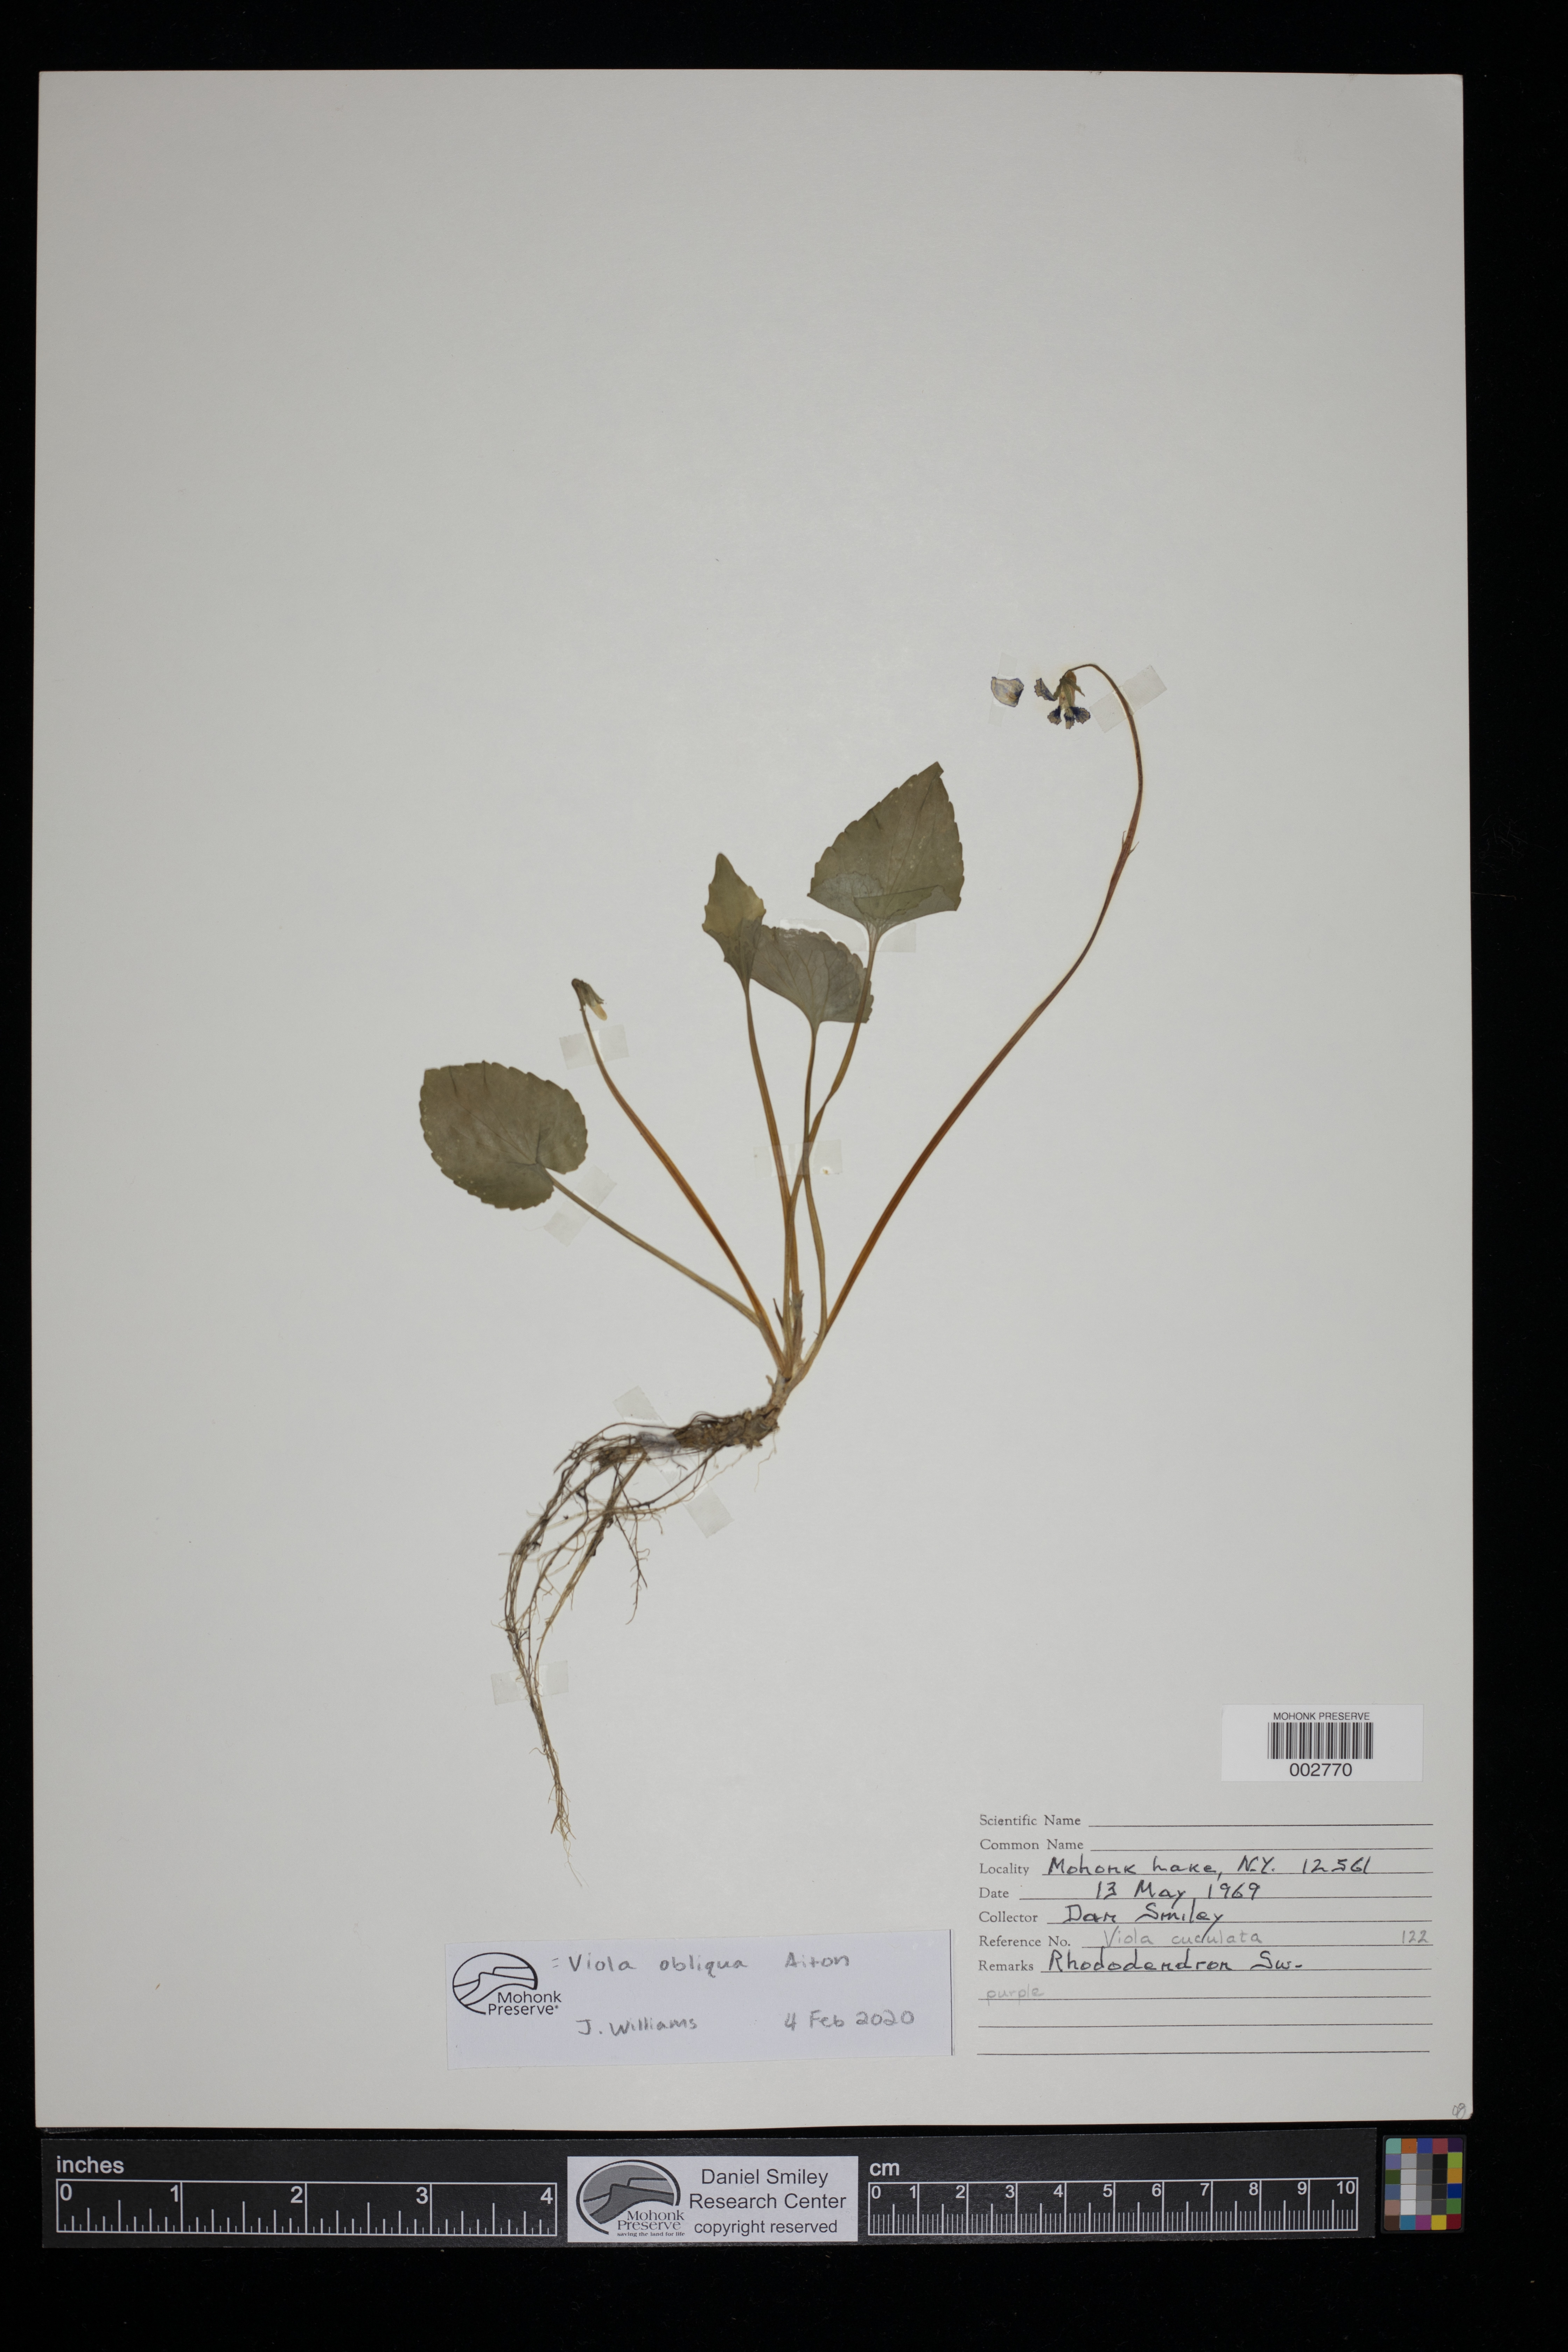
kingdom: Plantae
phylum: Tracheophyta
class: Magnoliopsida
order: Malpighiales
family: Violaceae
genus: Viola
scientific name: Viola cucullata
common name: Marsh blue violet
